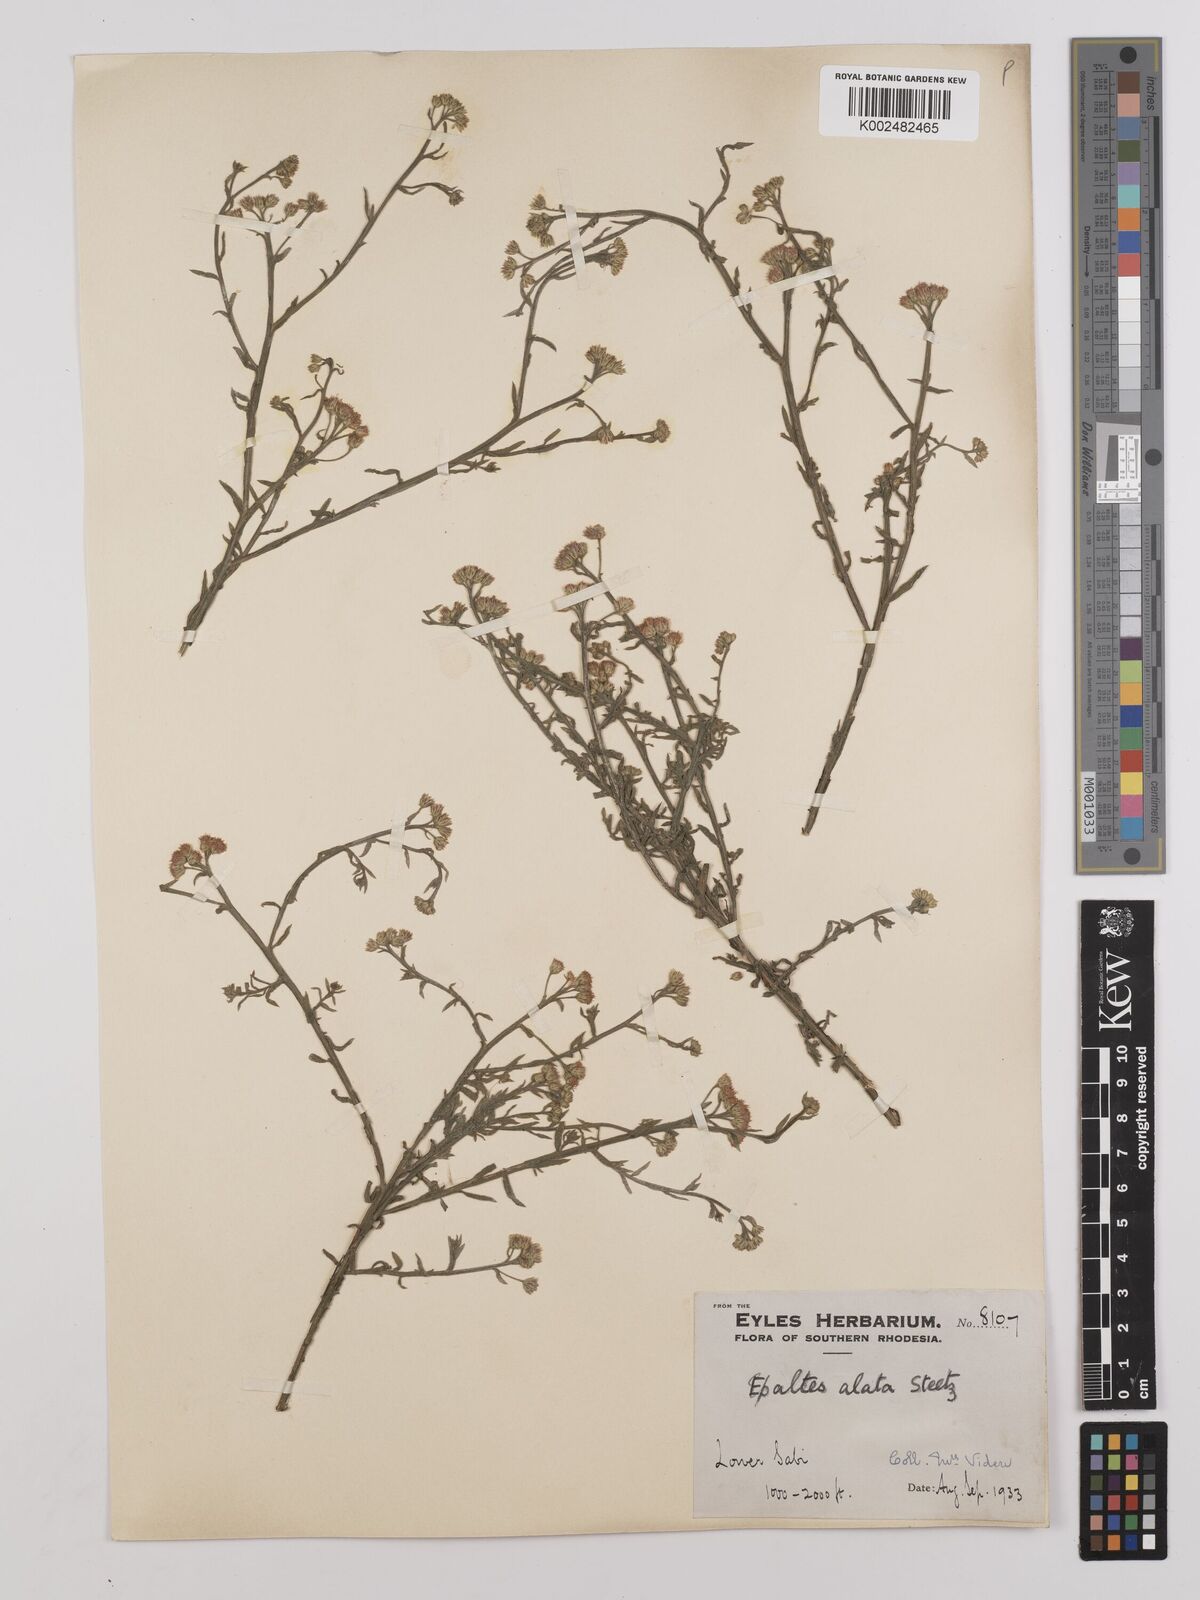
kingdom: Plantae
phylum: Tracheophyta
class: Magnoliopsida
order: Asterales
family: Asteraceae
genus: Litogyne
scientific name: Litogyne gariepina
